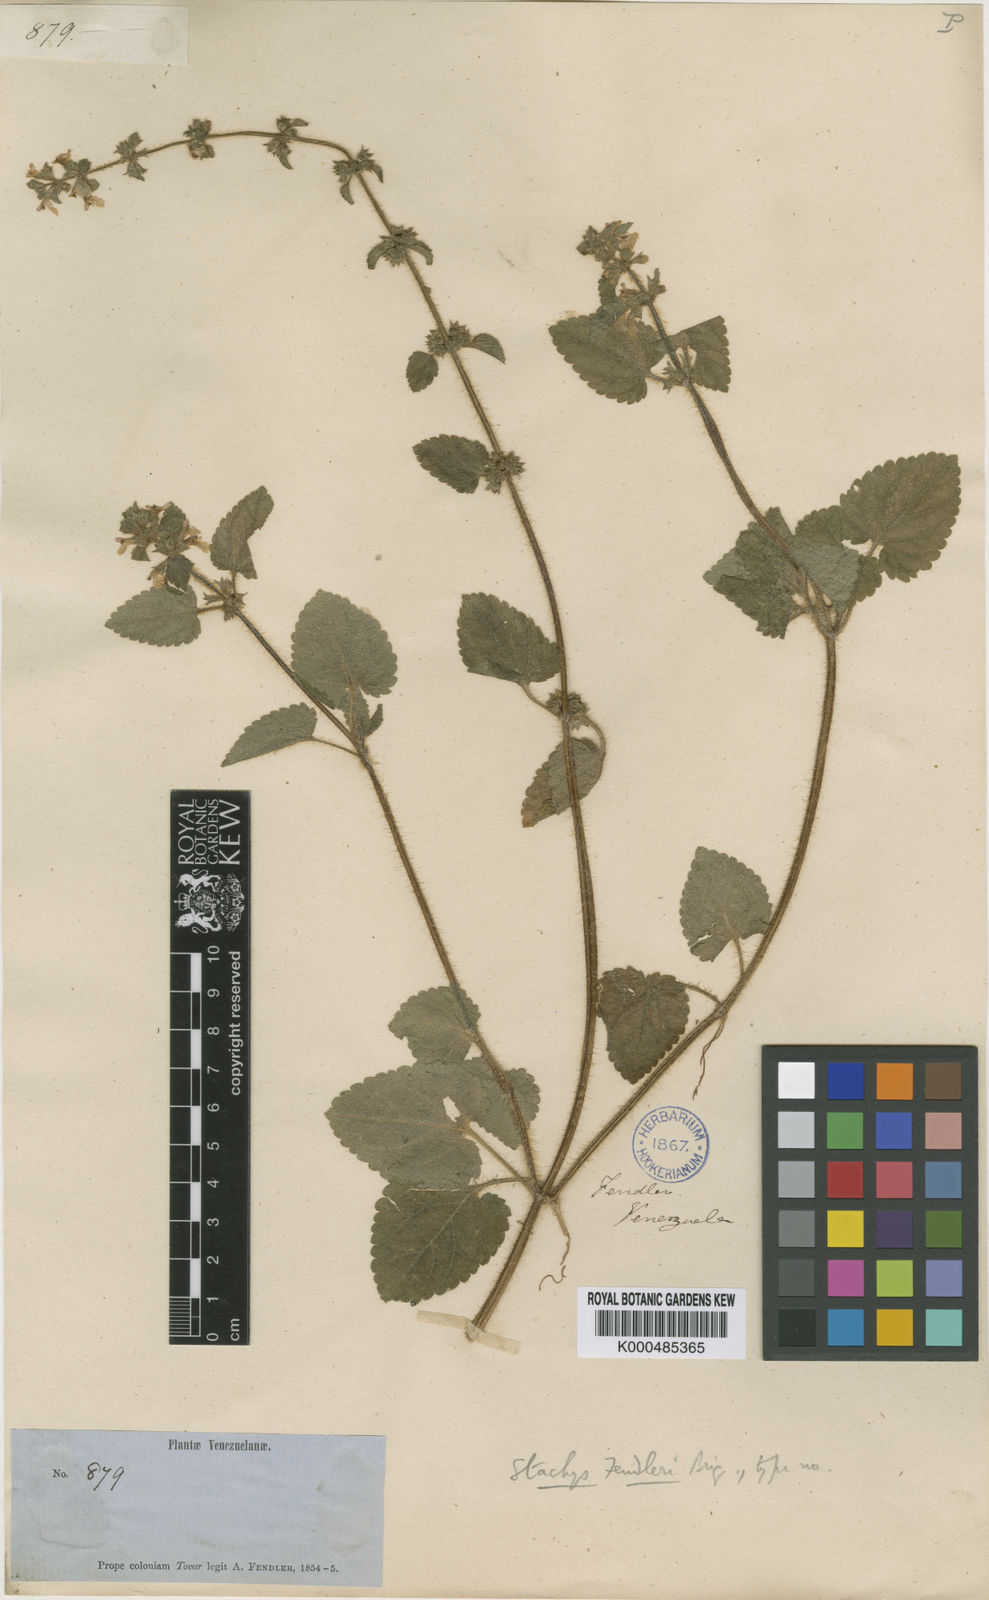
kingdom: Plantae
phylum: Tracheophyta
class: Magnoliopsida
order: Lamiales
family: Lamiaceae
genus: Stachys
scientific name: Stachys fendleri
